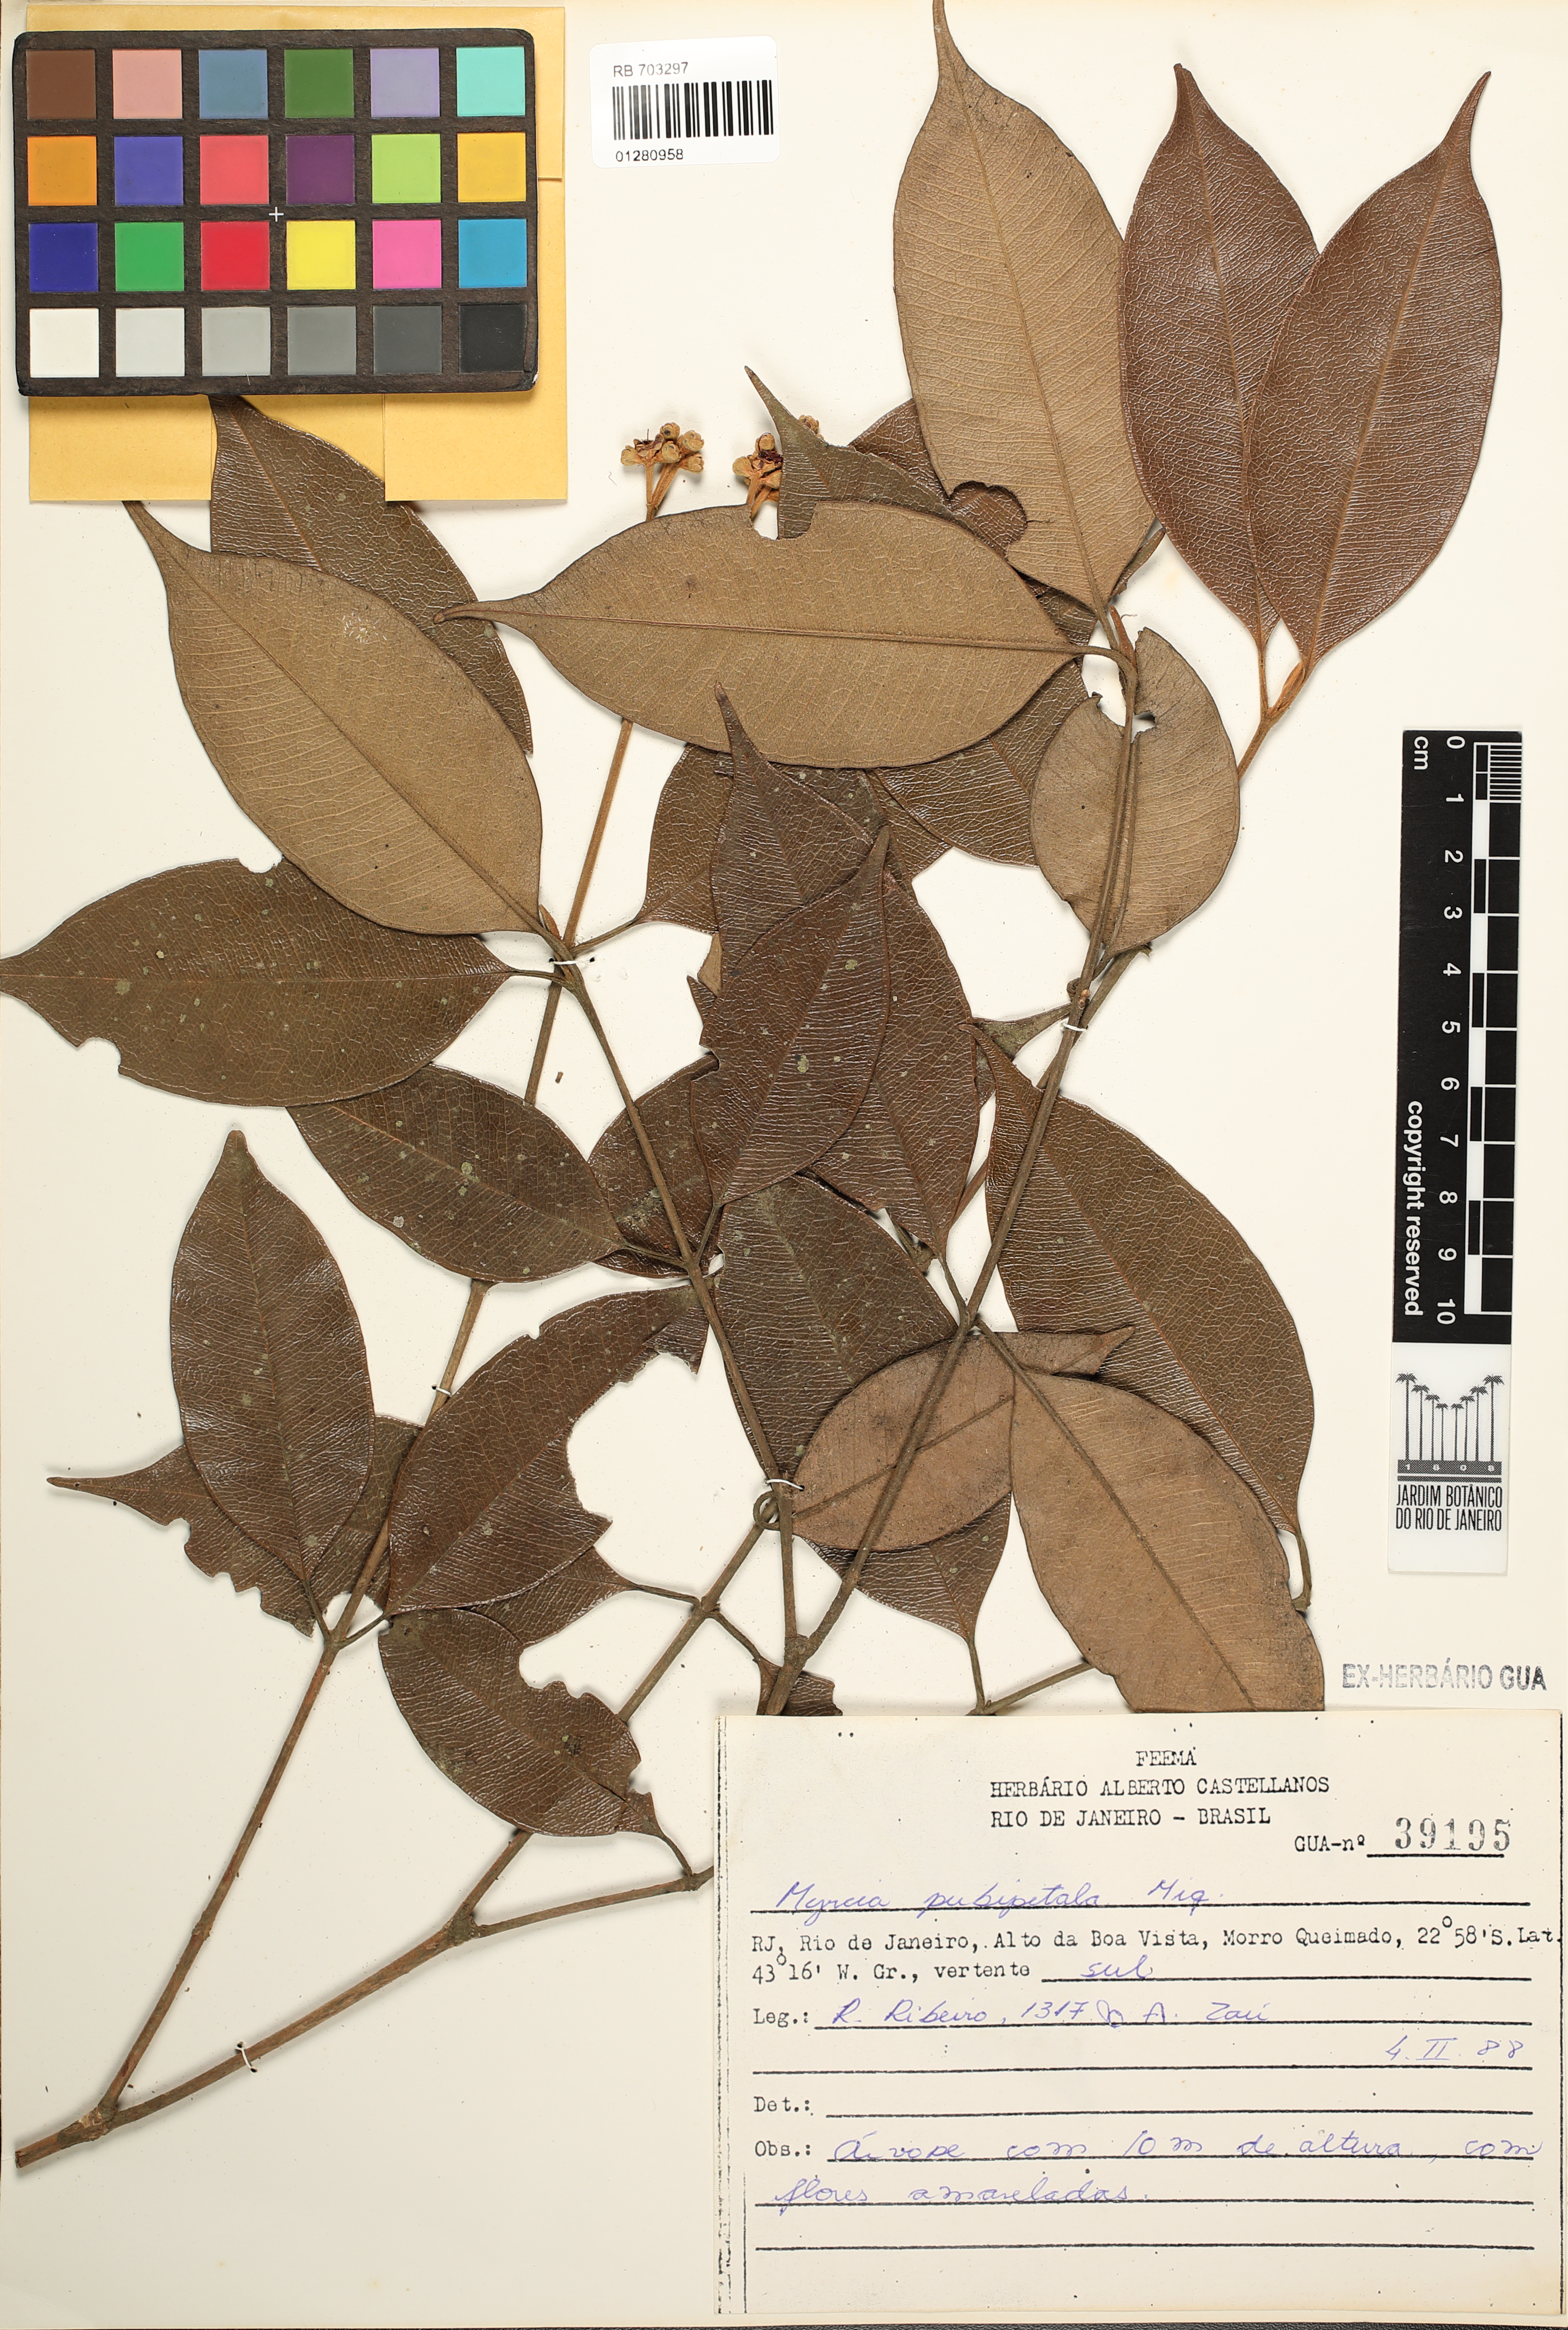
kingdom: Plantae
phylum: Tracheophyta
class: Magnoliopsida
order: Myrtales
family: Myrtaceae
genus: Myrcia
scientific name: Myrcia pubipetala
